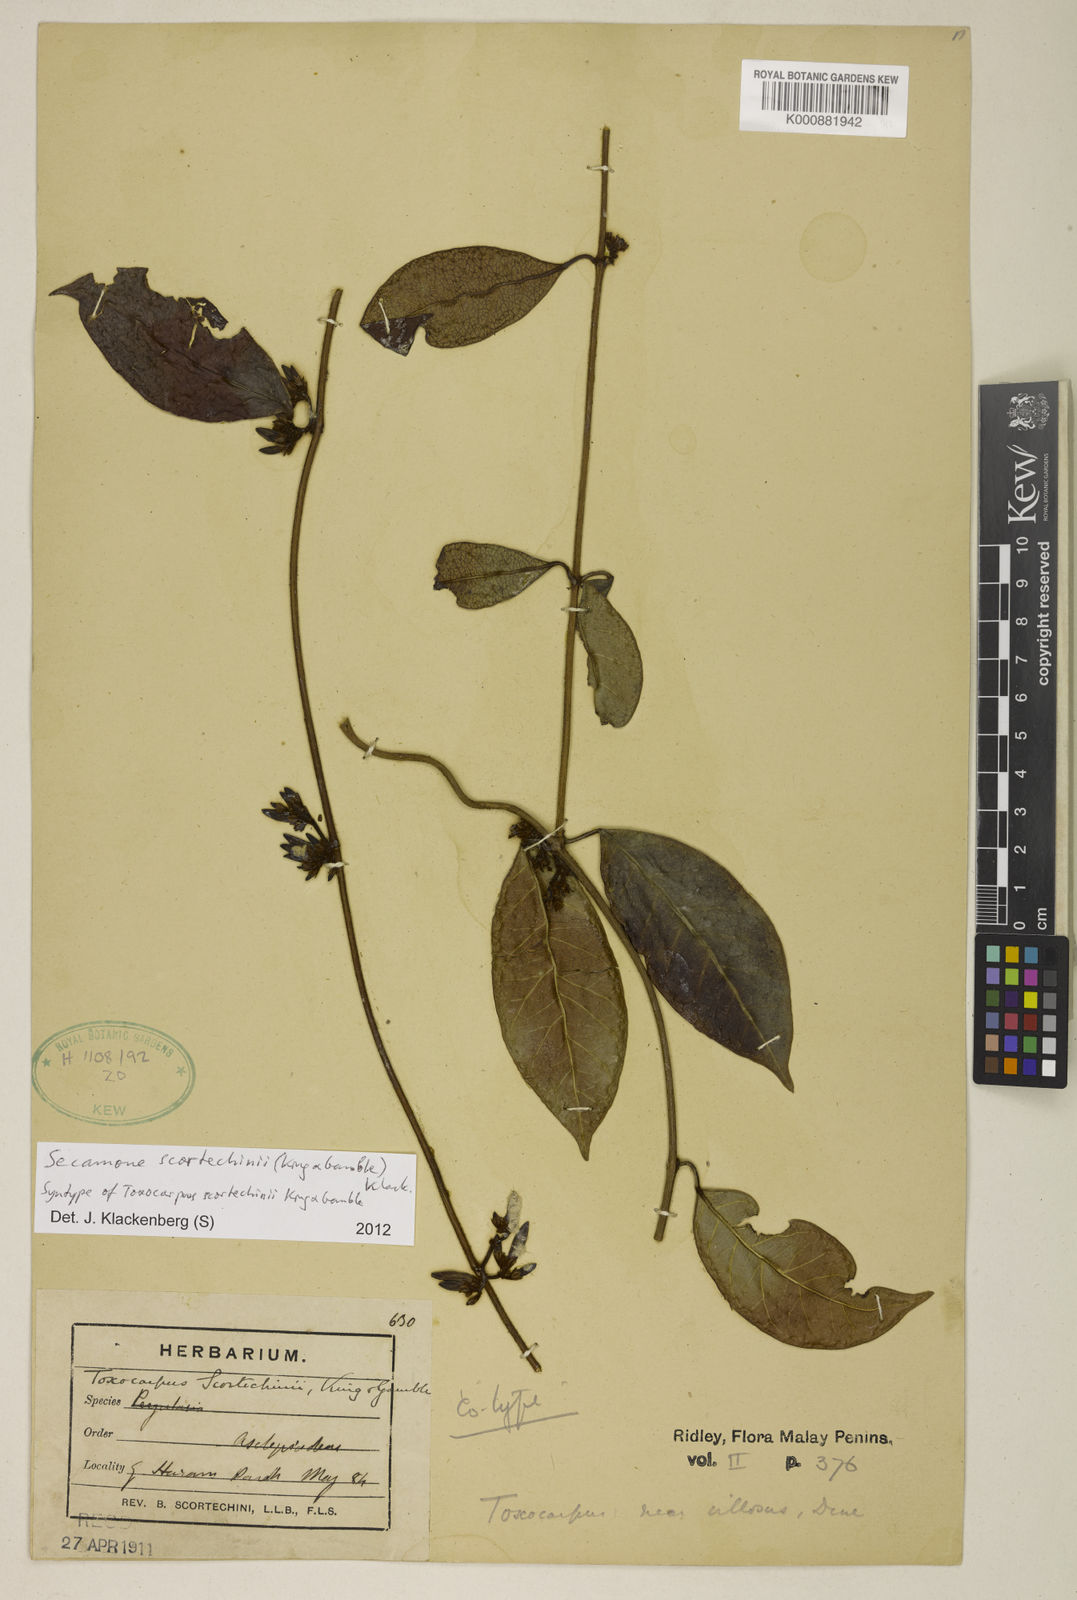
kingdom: Plantae
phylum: Tracheophyta
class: Magnoliopsida
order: Gentianales
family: Apocynaceae
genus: Secamone
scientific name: Secamone scortechinii
